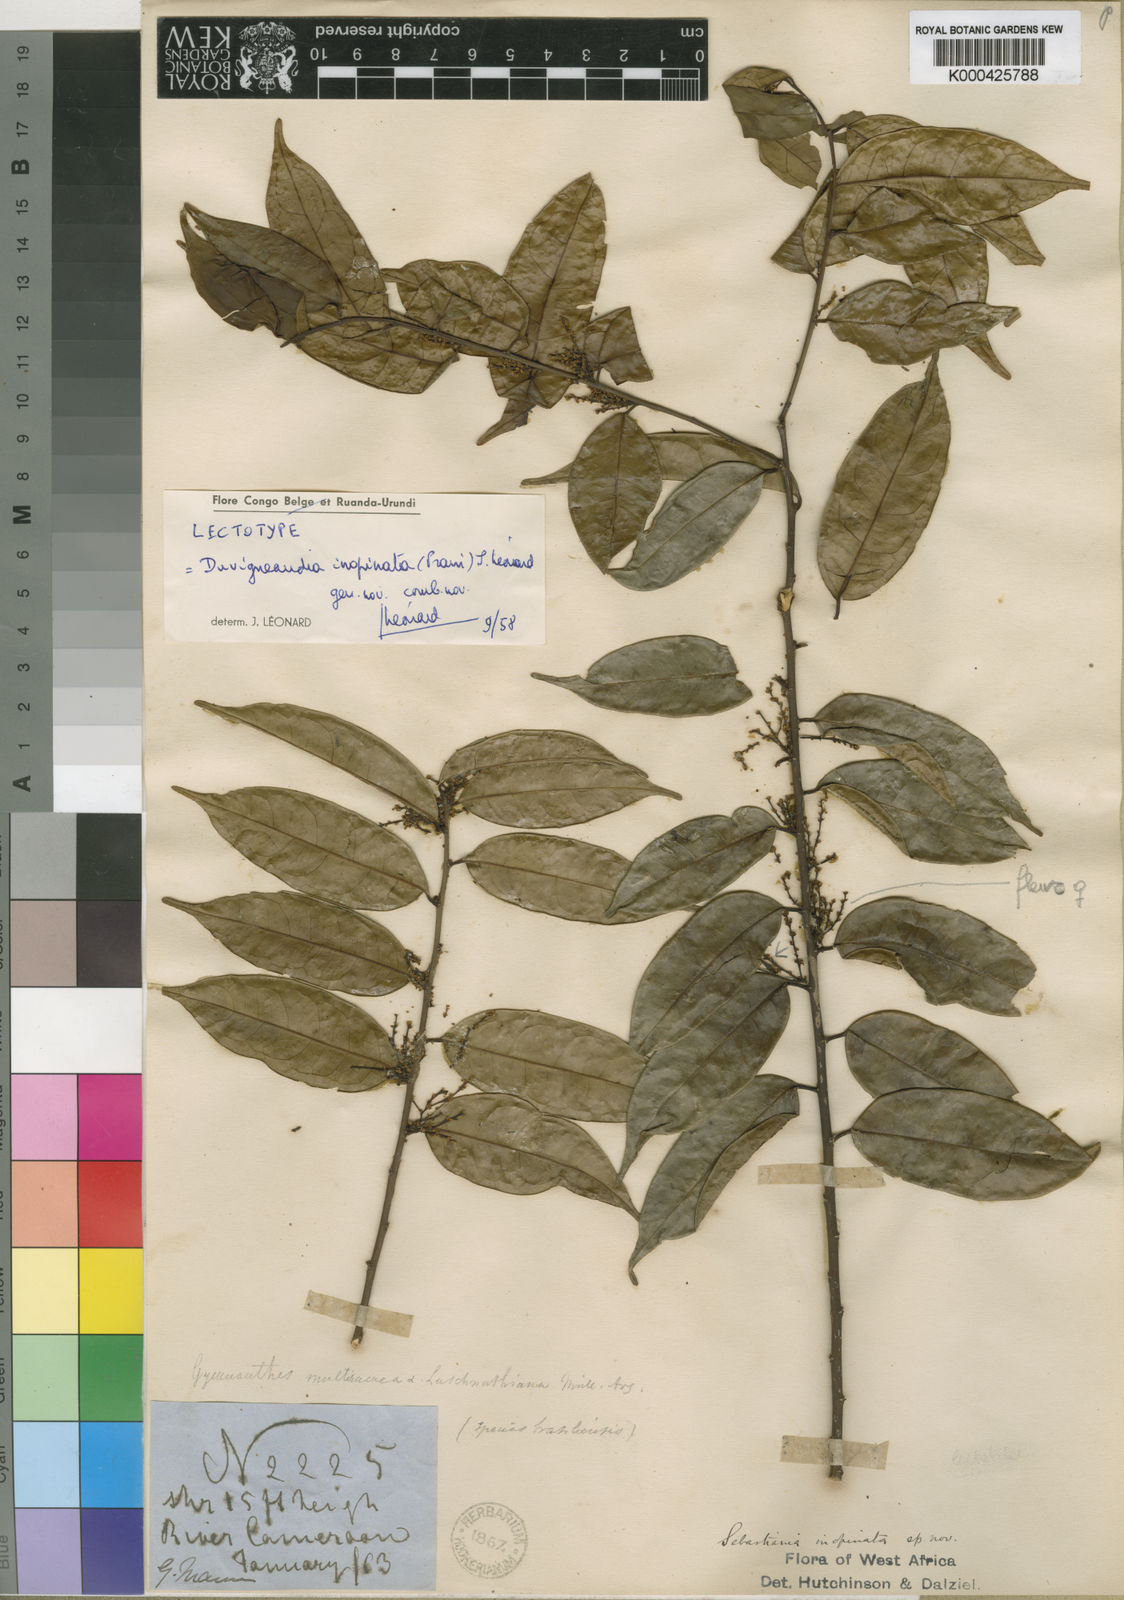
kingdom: Plantae
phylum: Tracheophyta
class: Magnoliopsida
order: Malpighiales
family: Euphorbiaceae
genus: Gymnanthes
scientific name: Gymnanthes inopinata
